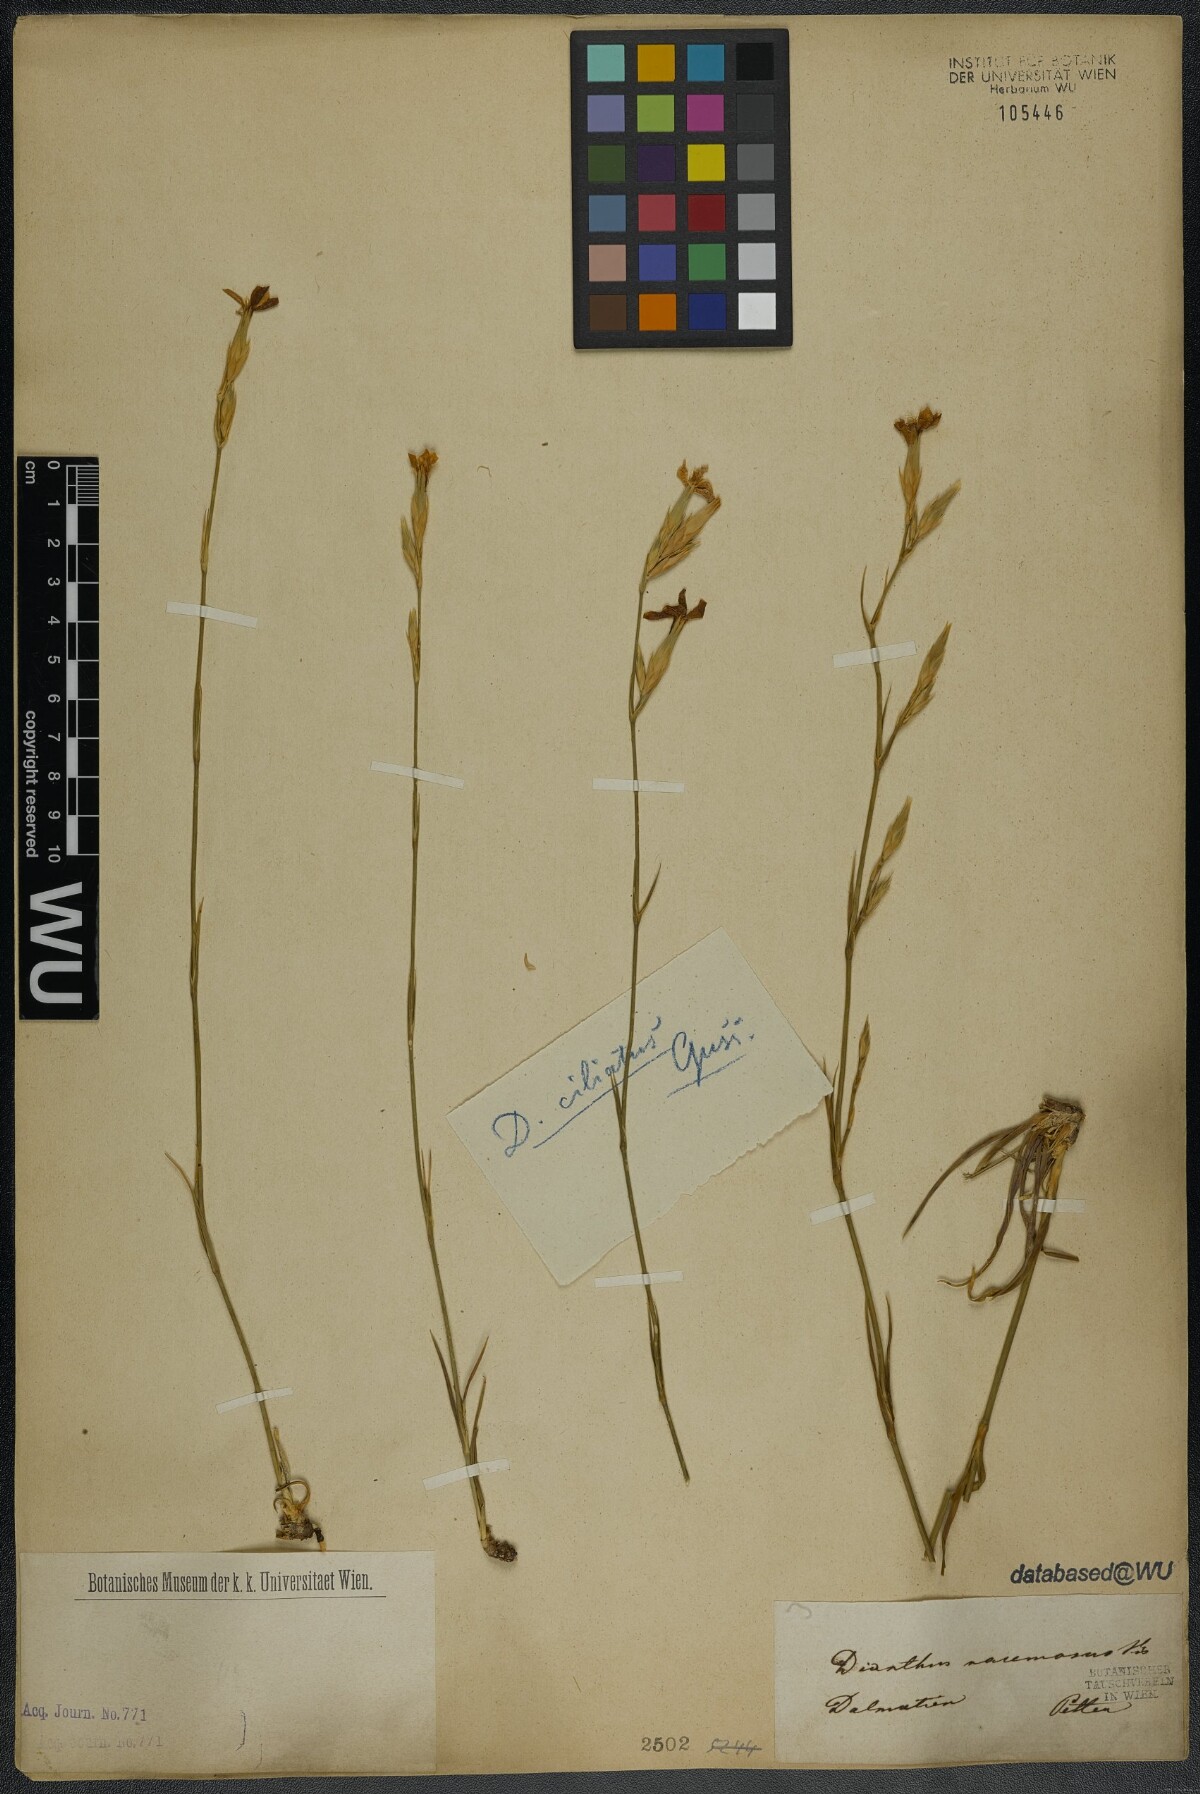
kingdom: Plantae
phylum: Tracheophyta
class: Magnoliopsida
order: Caryophyllales
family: Caryophyllaceae
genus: Dianthus
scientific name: Dianthus ciliatus
